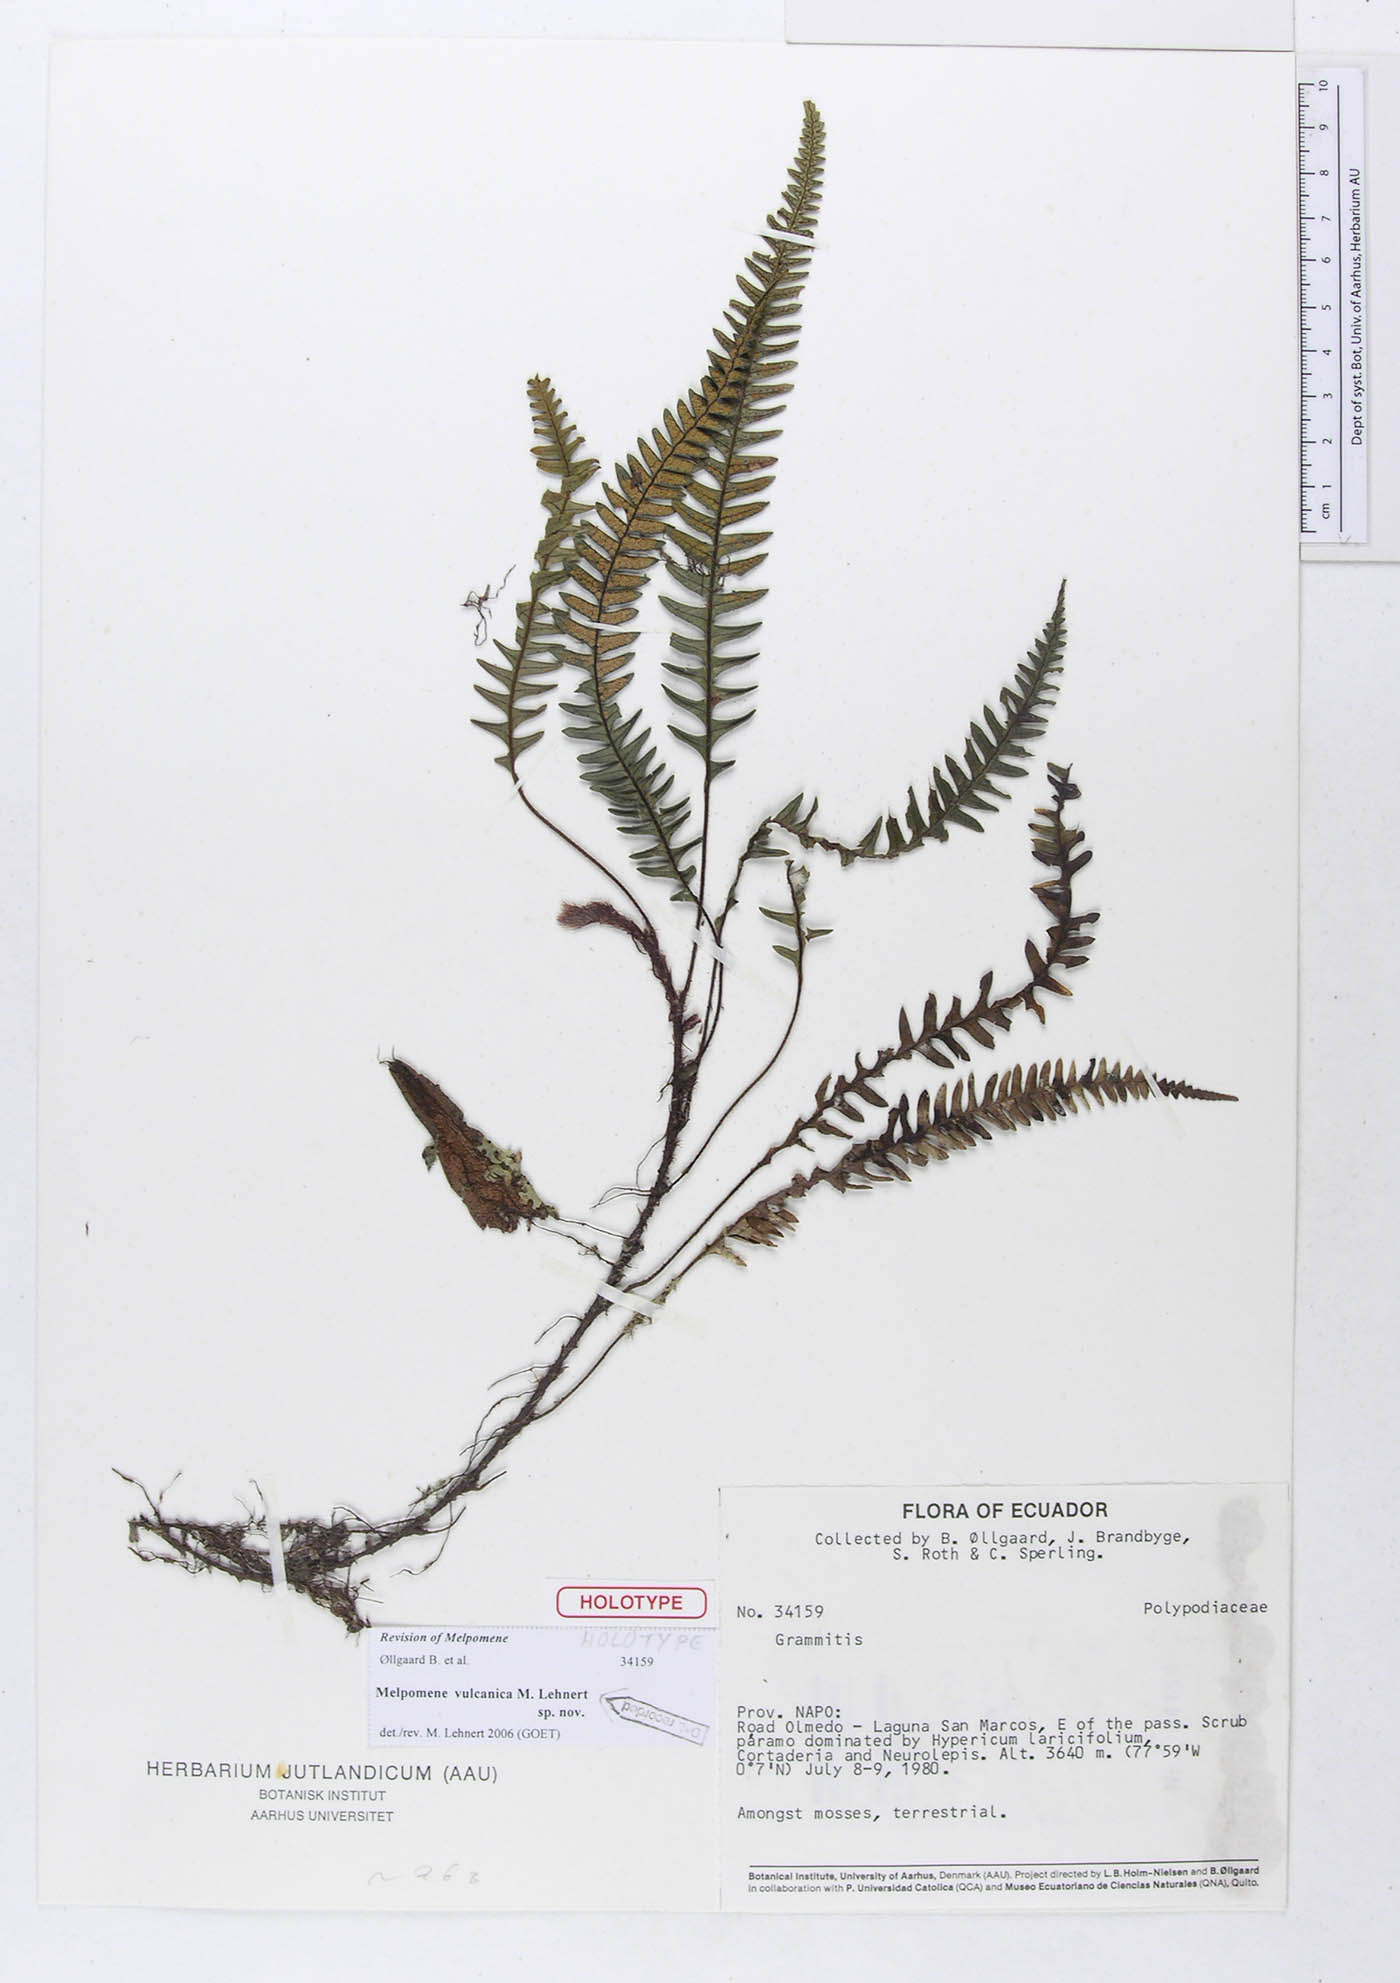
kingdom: Plantae
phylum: Tracheophyta
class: Polypodiopsida
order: Polypodiales
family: Polypodiaceae
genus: Melpomene
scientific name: Melpomene vulcanica
